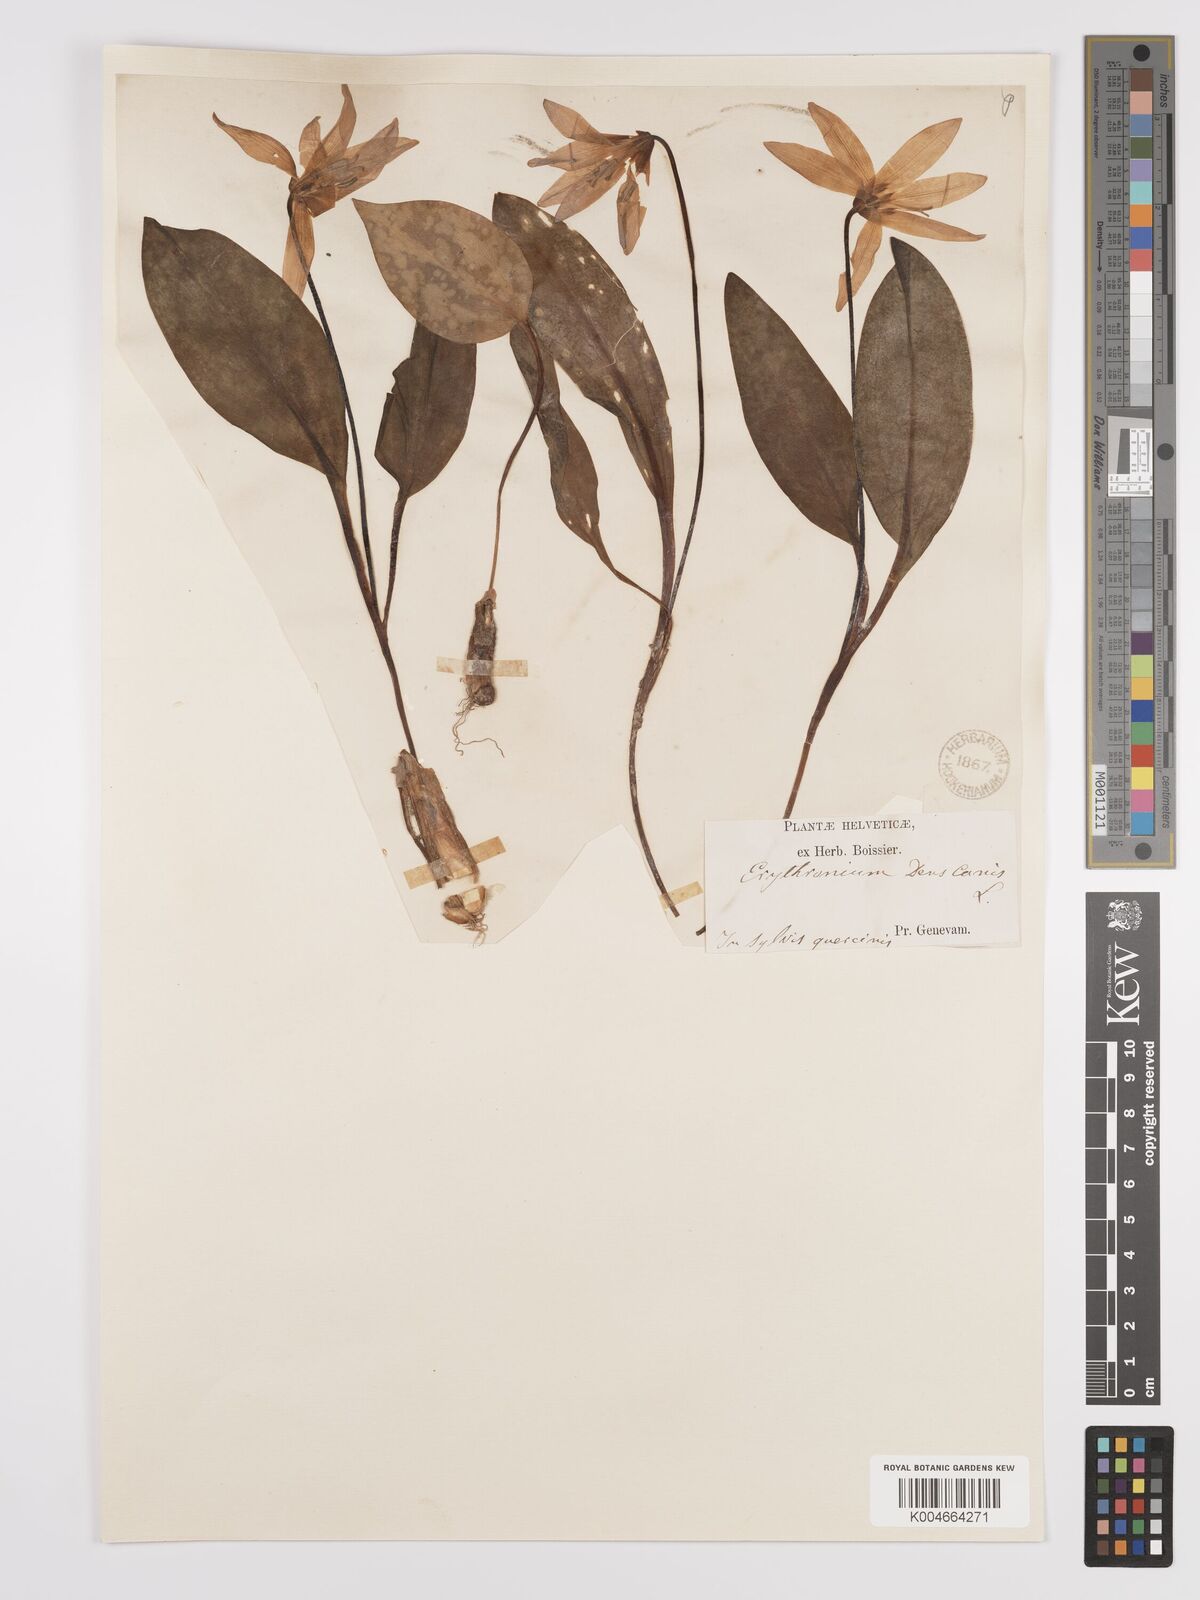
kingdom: Plantae
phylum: Tracheophyta
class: Liliopsida
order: Liliales
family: Liliaceae
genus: Erythronium
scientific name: Erythronium dens-canis
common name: Dog's-tooth-violet
